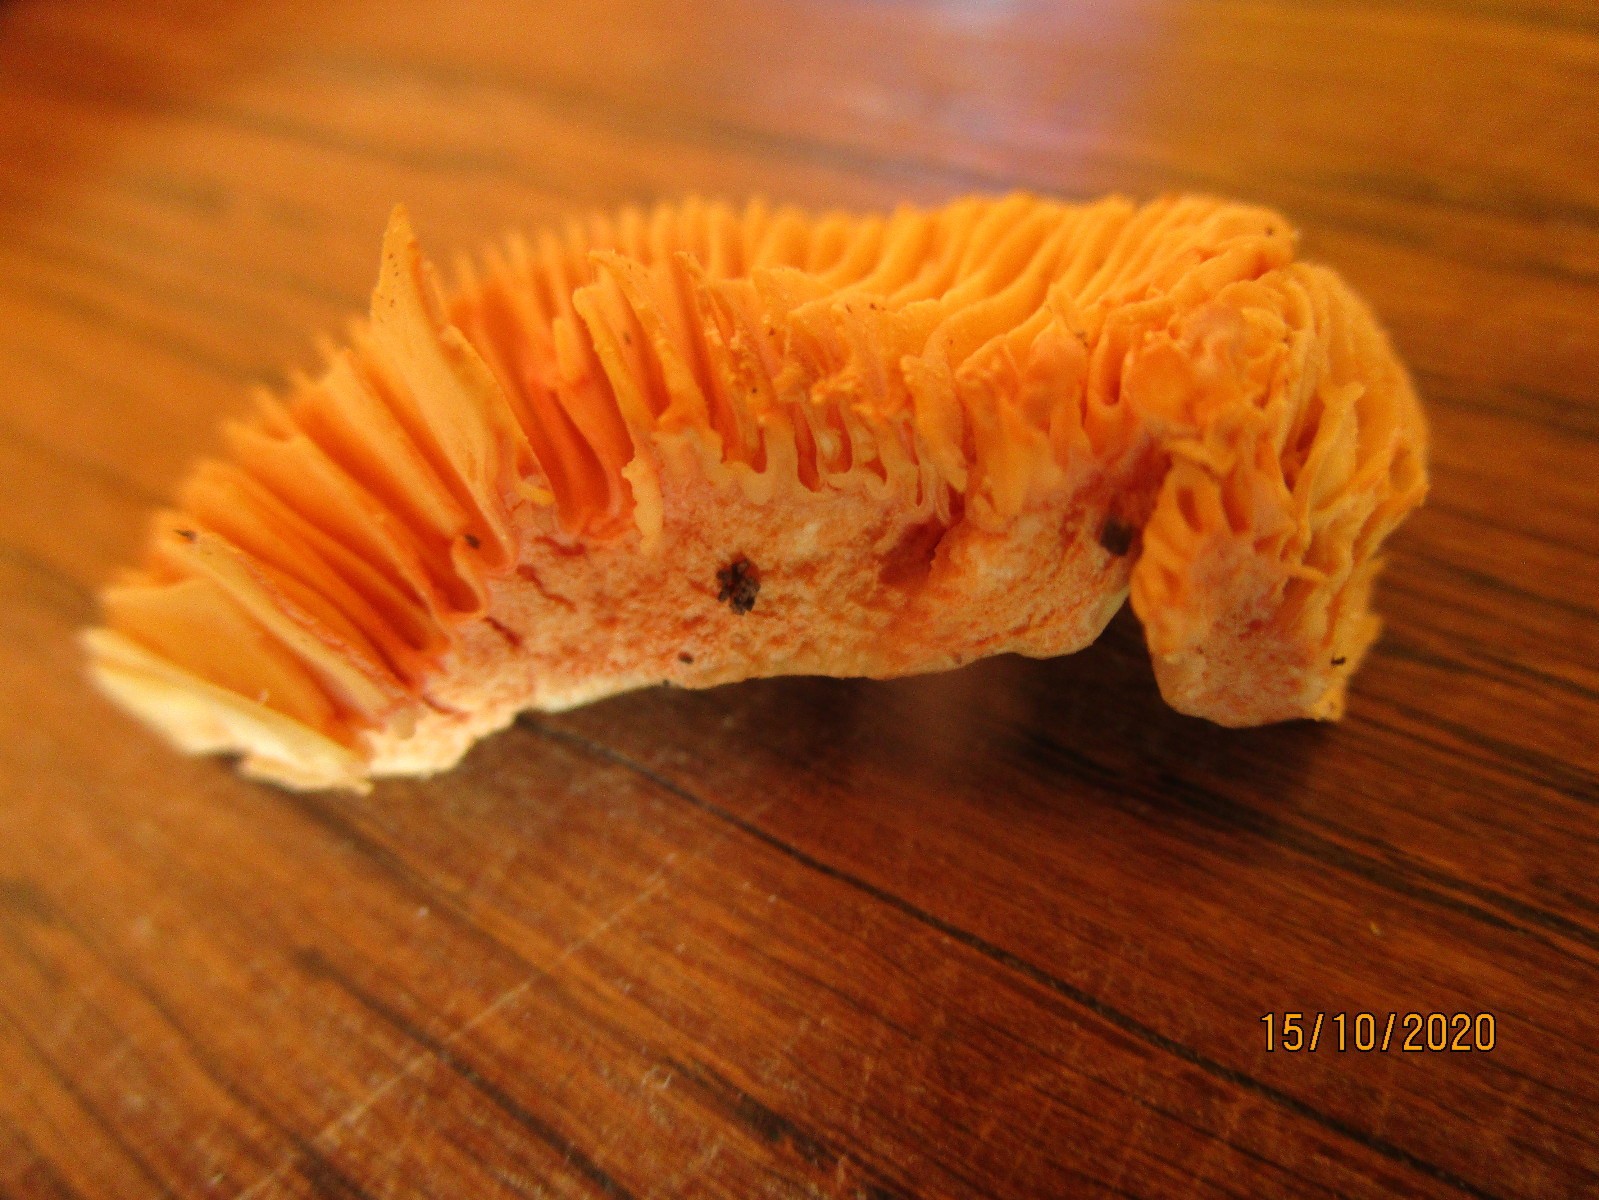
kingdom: Fungi
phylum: Basidiomycota
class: Agaricomycetes
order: Russulales
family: Russulaceae
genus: Lactarius
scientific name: Lactarius
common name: mælkehat
